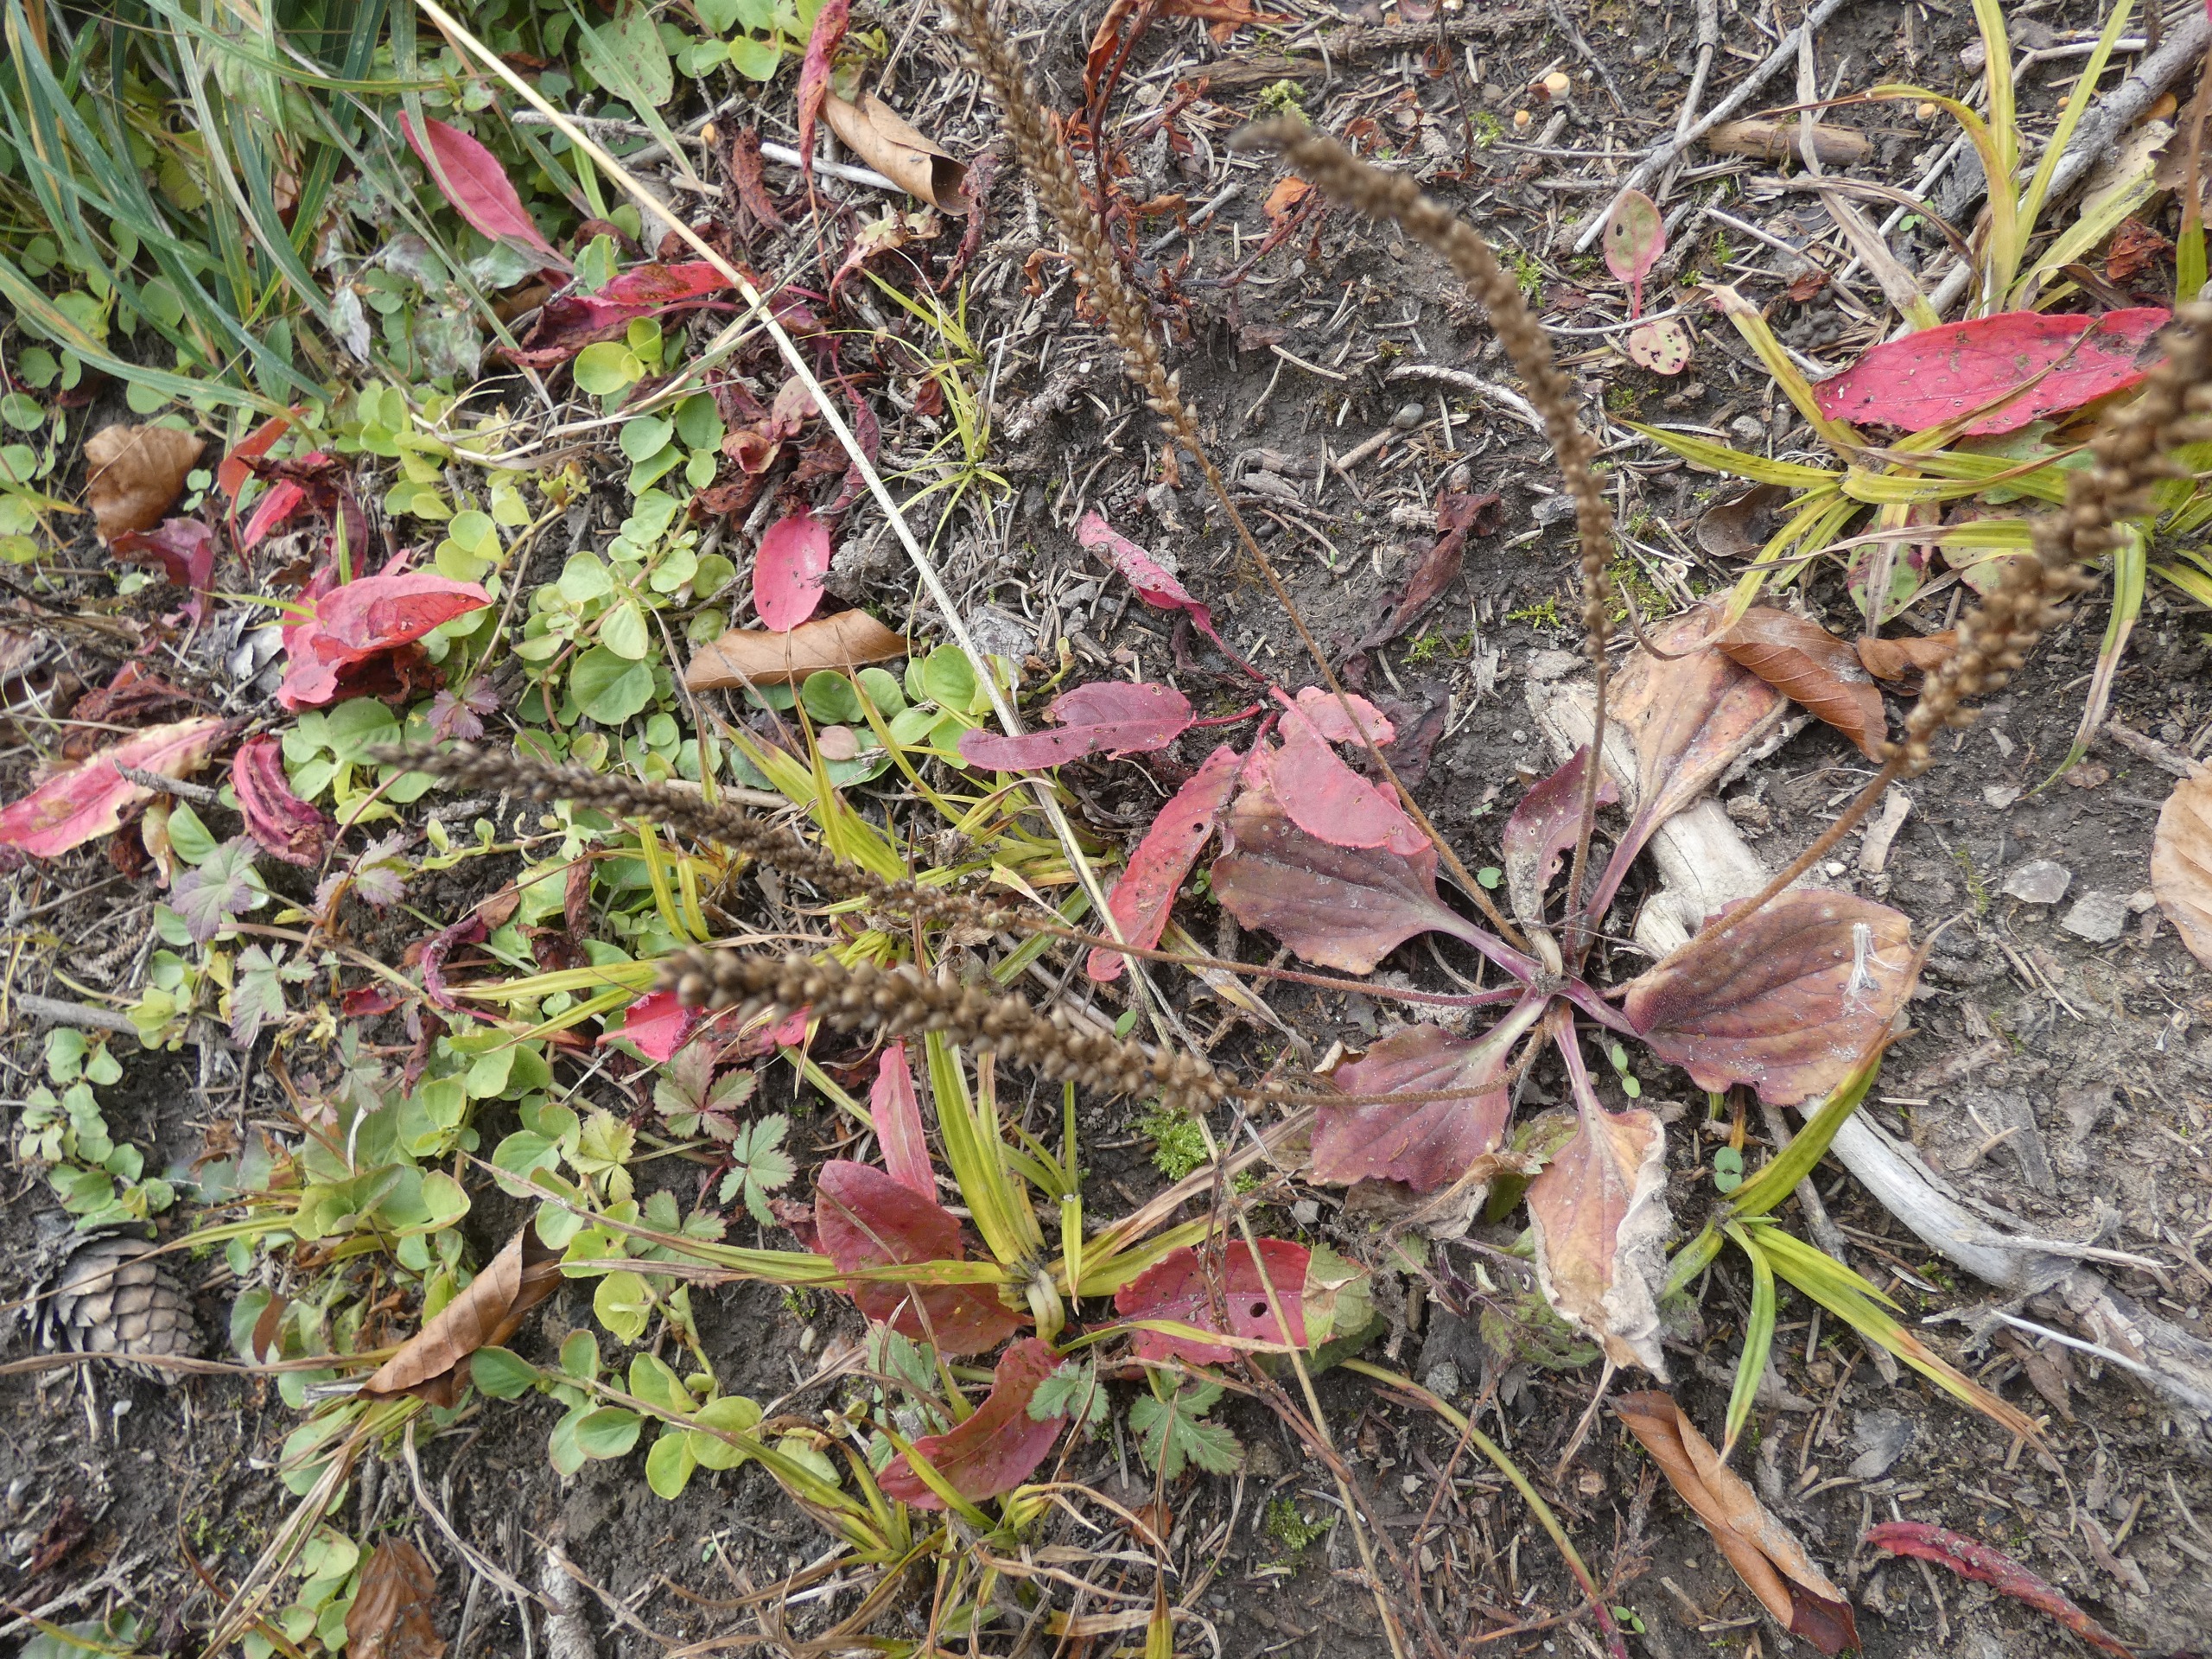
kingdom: Plantae
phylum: Tracheophyta
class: Magnoliopsida
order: Lamiales
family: Plantaginaceae
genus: Plantago
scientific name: Plantago major
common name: Glat vejbred
